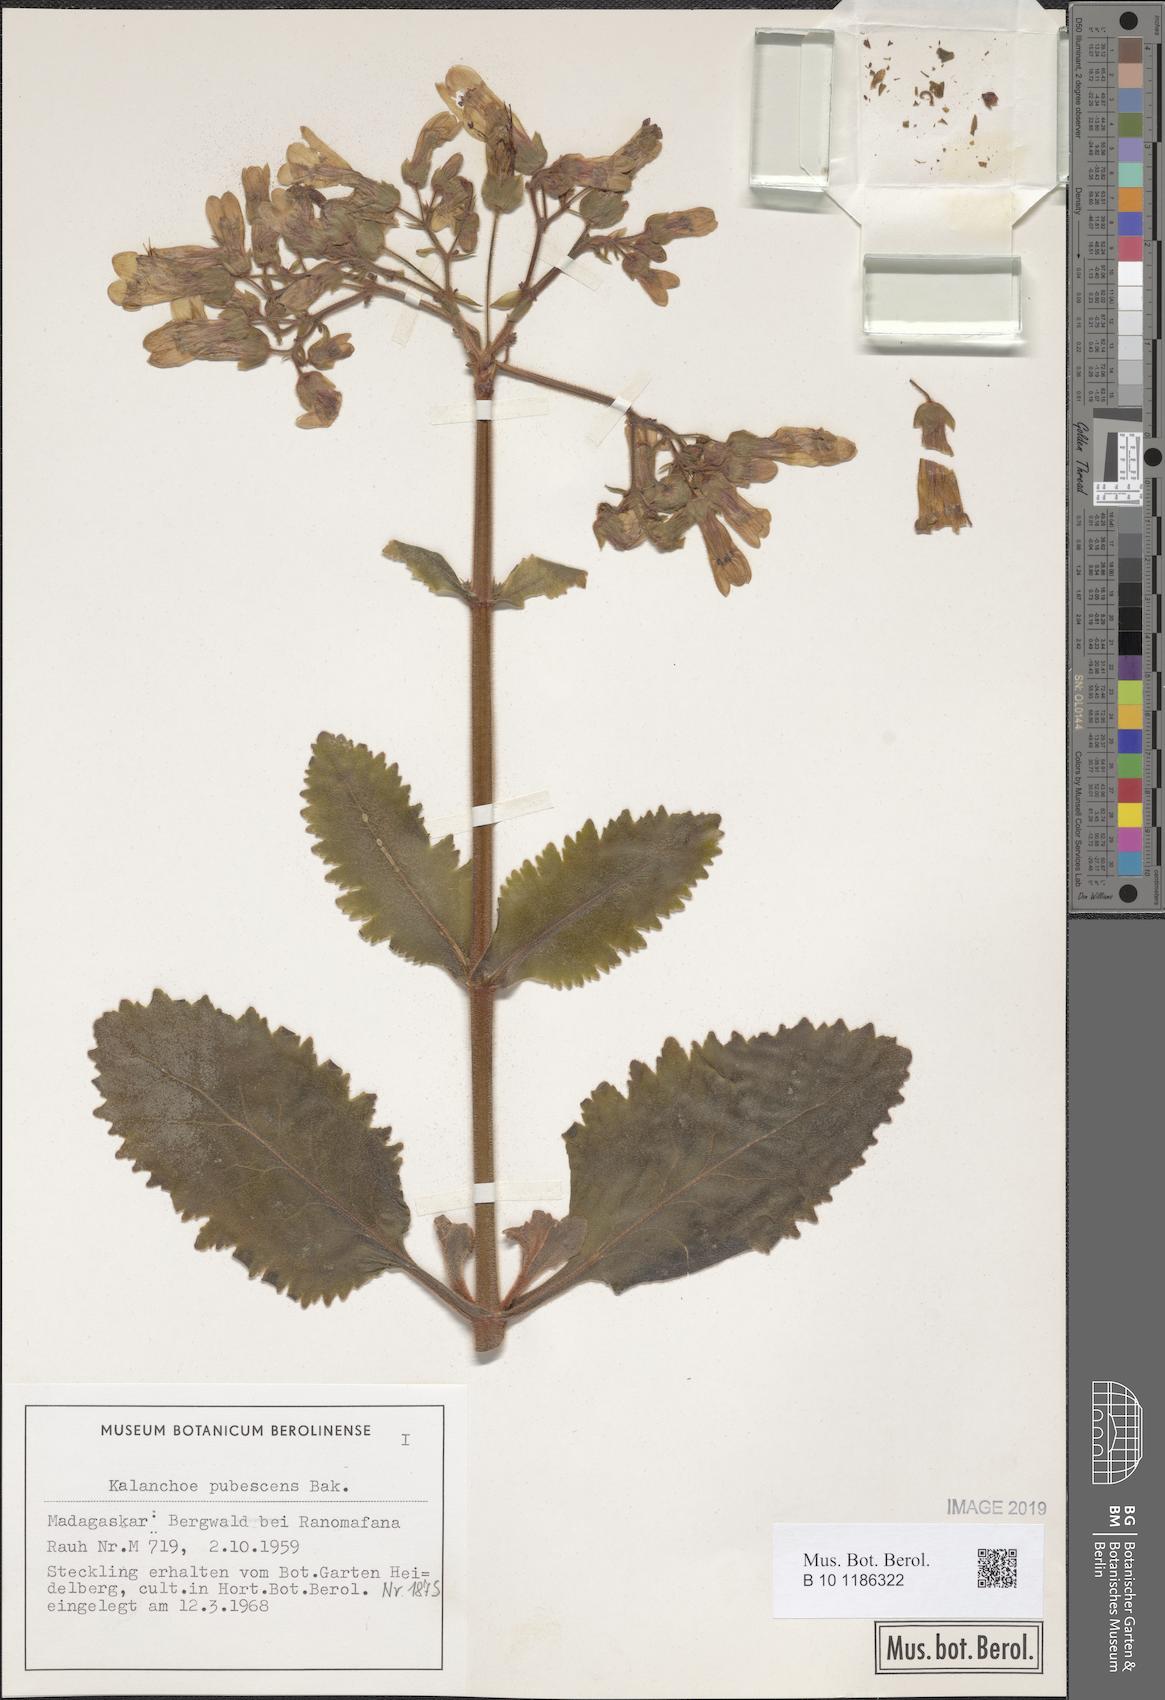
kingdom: Plantae
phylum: Tracheophyta
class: Magnoliopsida
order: Saxifragales
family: Crassulaceae
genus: Kalanchoe
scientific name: Kalanchoe pubescens
